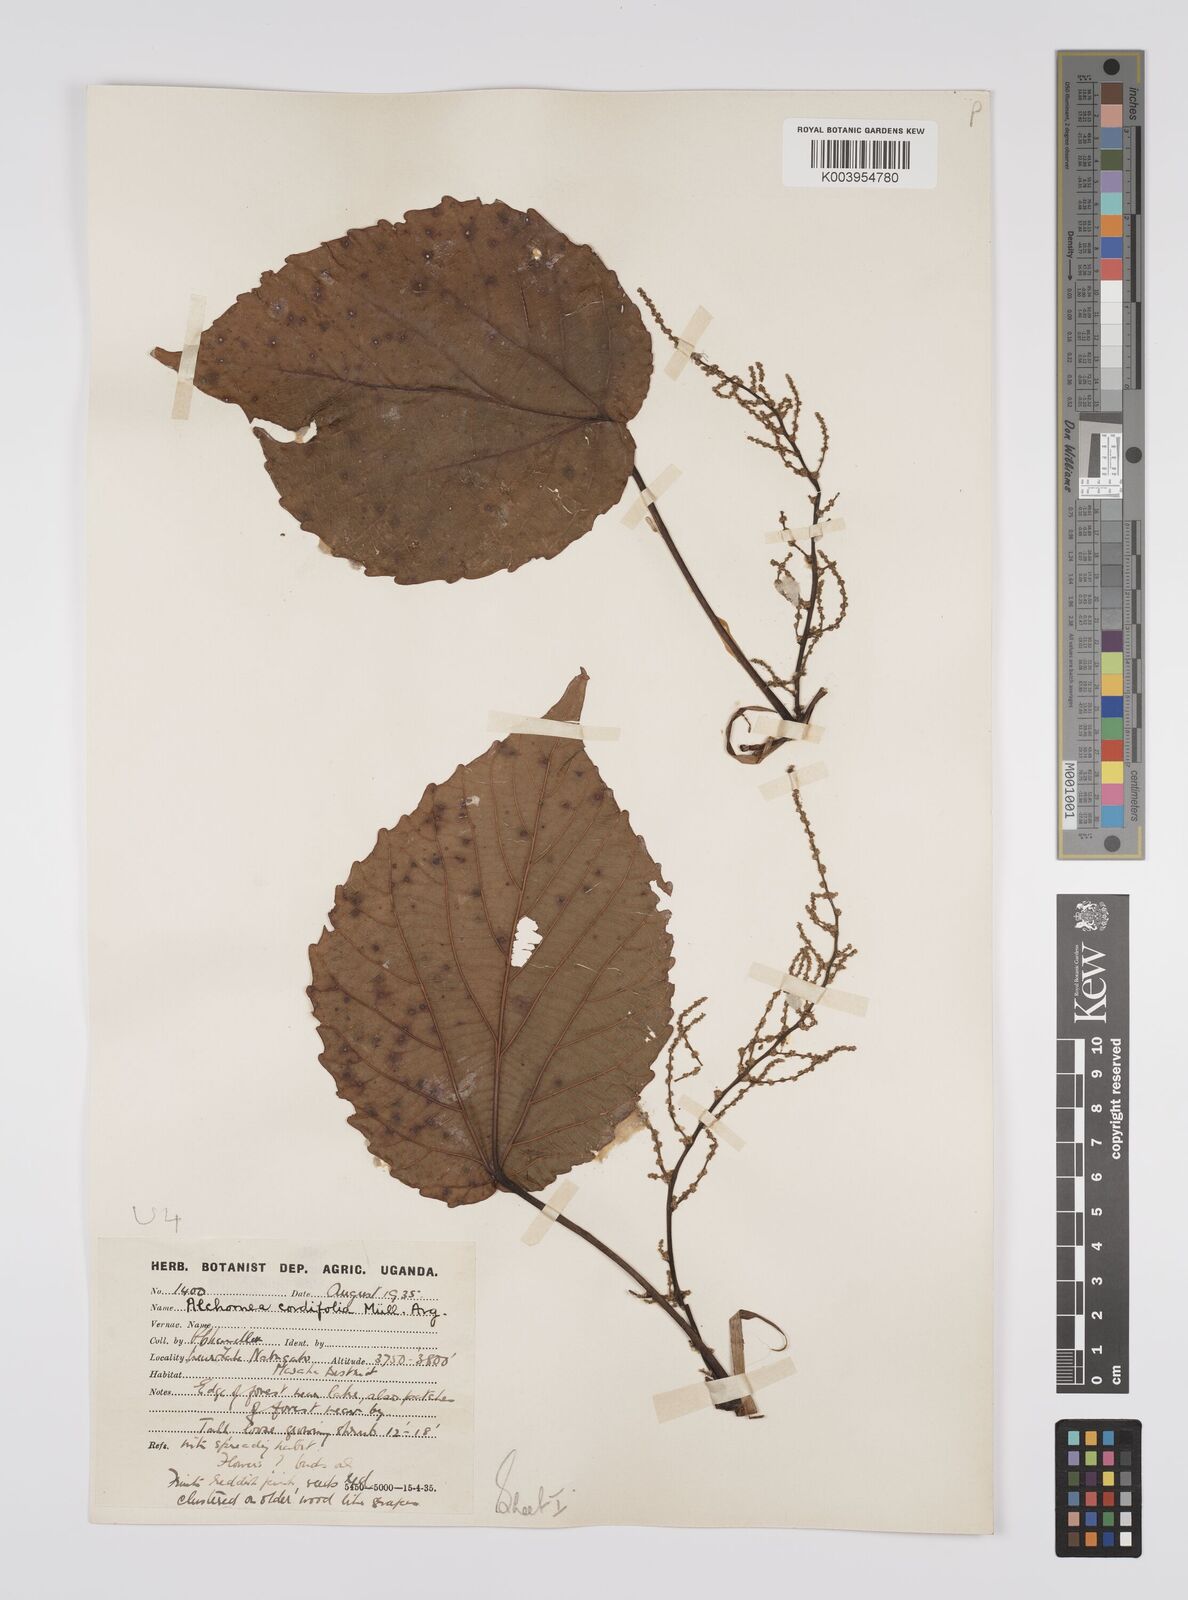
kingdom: Plantae
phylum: Tracheophyta
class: Magnoliopsida
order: Malpighiales
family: Euphorbiaceae
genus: Alchornea
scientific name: Alchornea cordifolia
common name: Christmasbush
